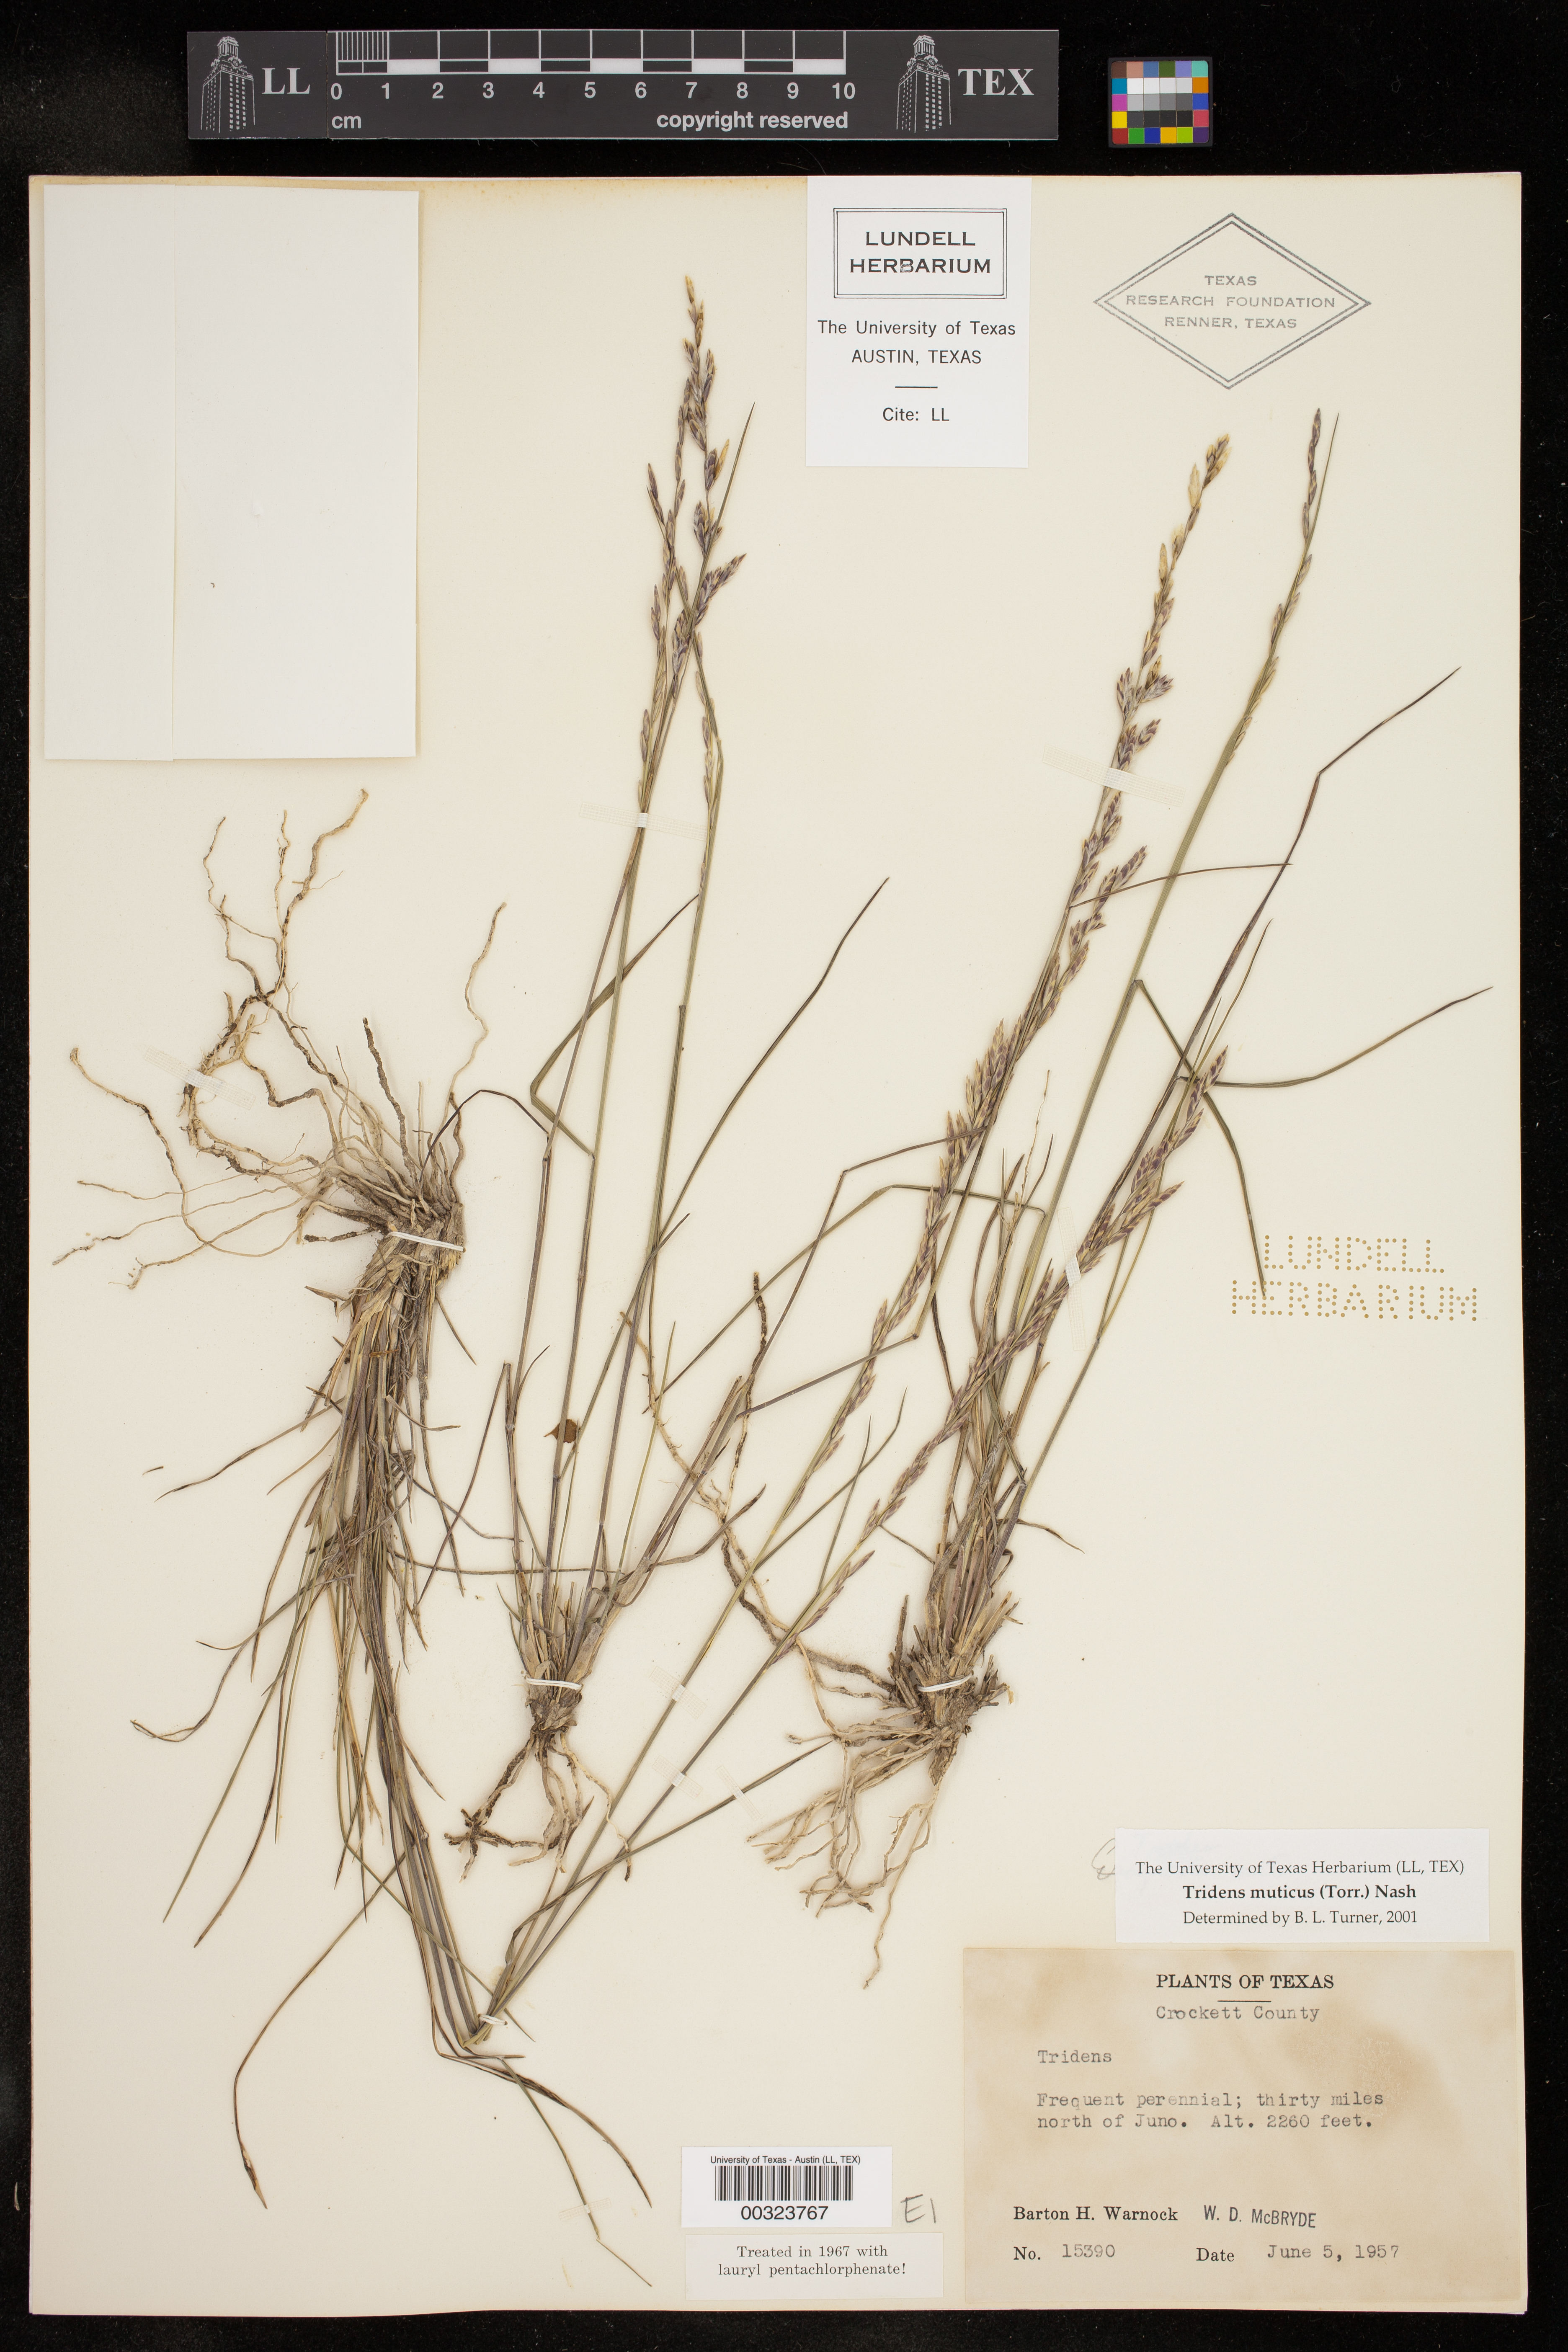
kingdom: Plantae
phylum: Tracheophyta
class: Liliopsida
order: Poales
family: Poaceae
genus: Tridentopsis
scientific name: Tridentopsis mutica
